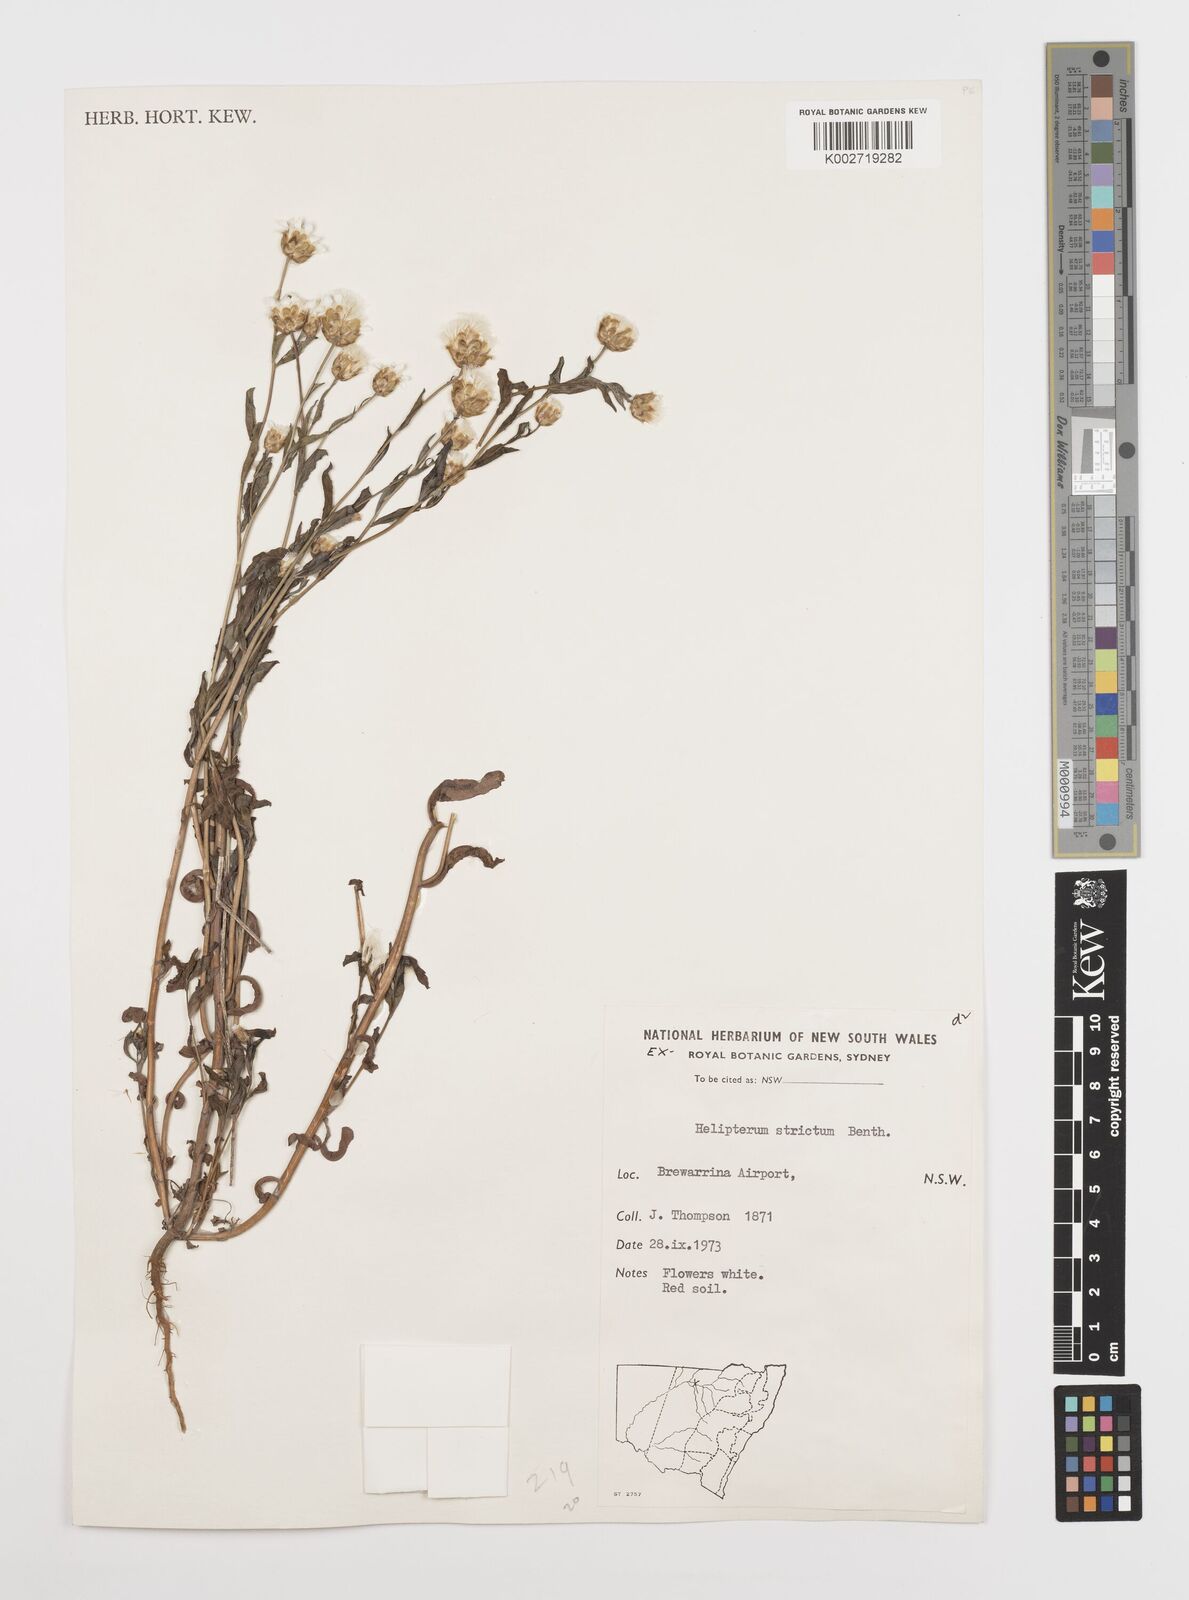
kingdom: Plantae
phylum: Tracheophyta
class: Magnoliopsida
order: Asterales
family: Asteraceae
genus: Rhodanthe
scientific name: Rhodanthe stricta
